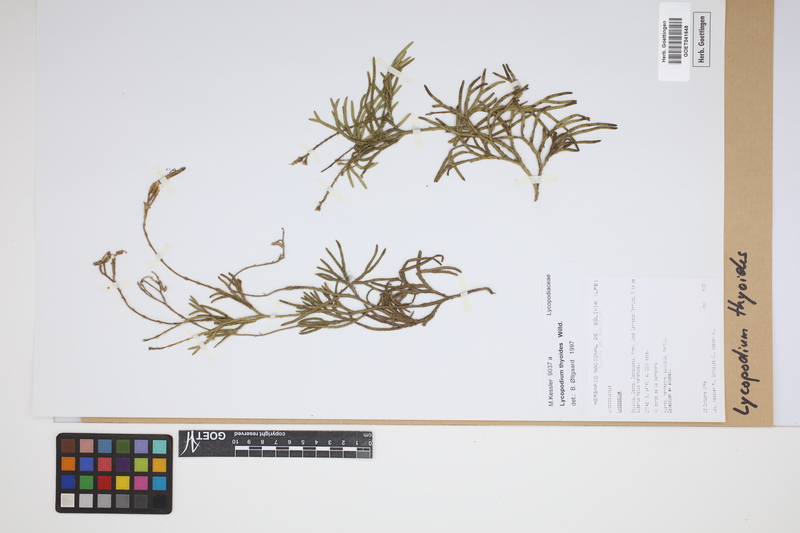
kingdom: Plantae
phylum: Tracheophyta
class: Lycopodiopsida
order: Lycopodiales
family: Lycopodiaceae
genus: Diphasiastrum
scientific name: Diphasiastrum thyoides
